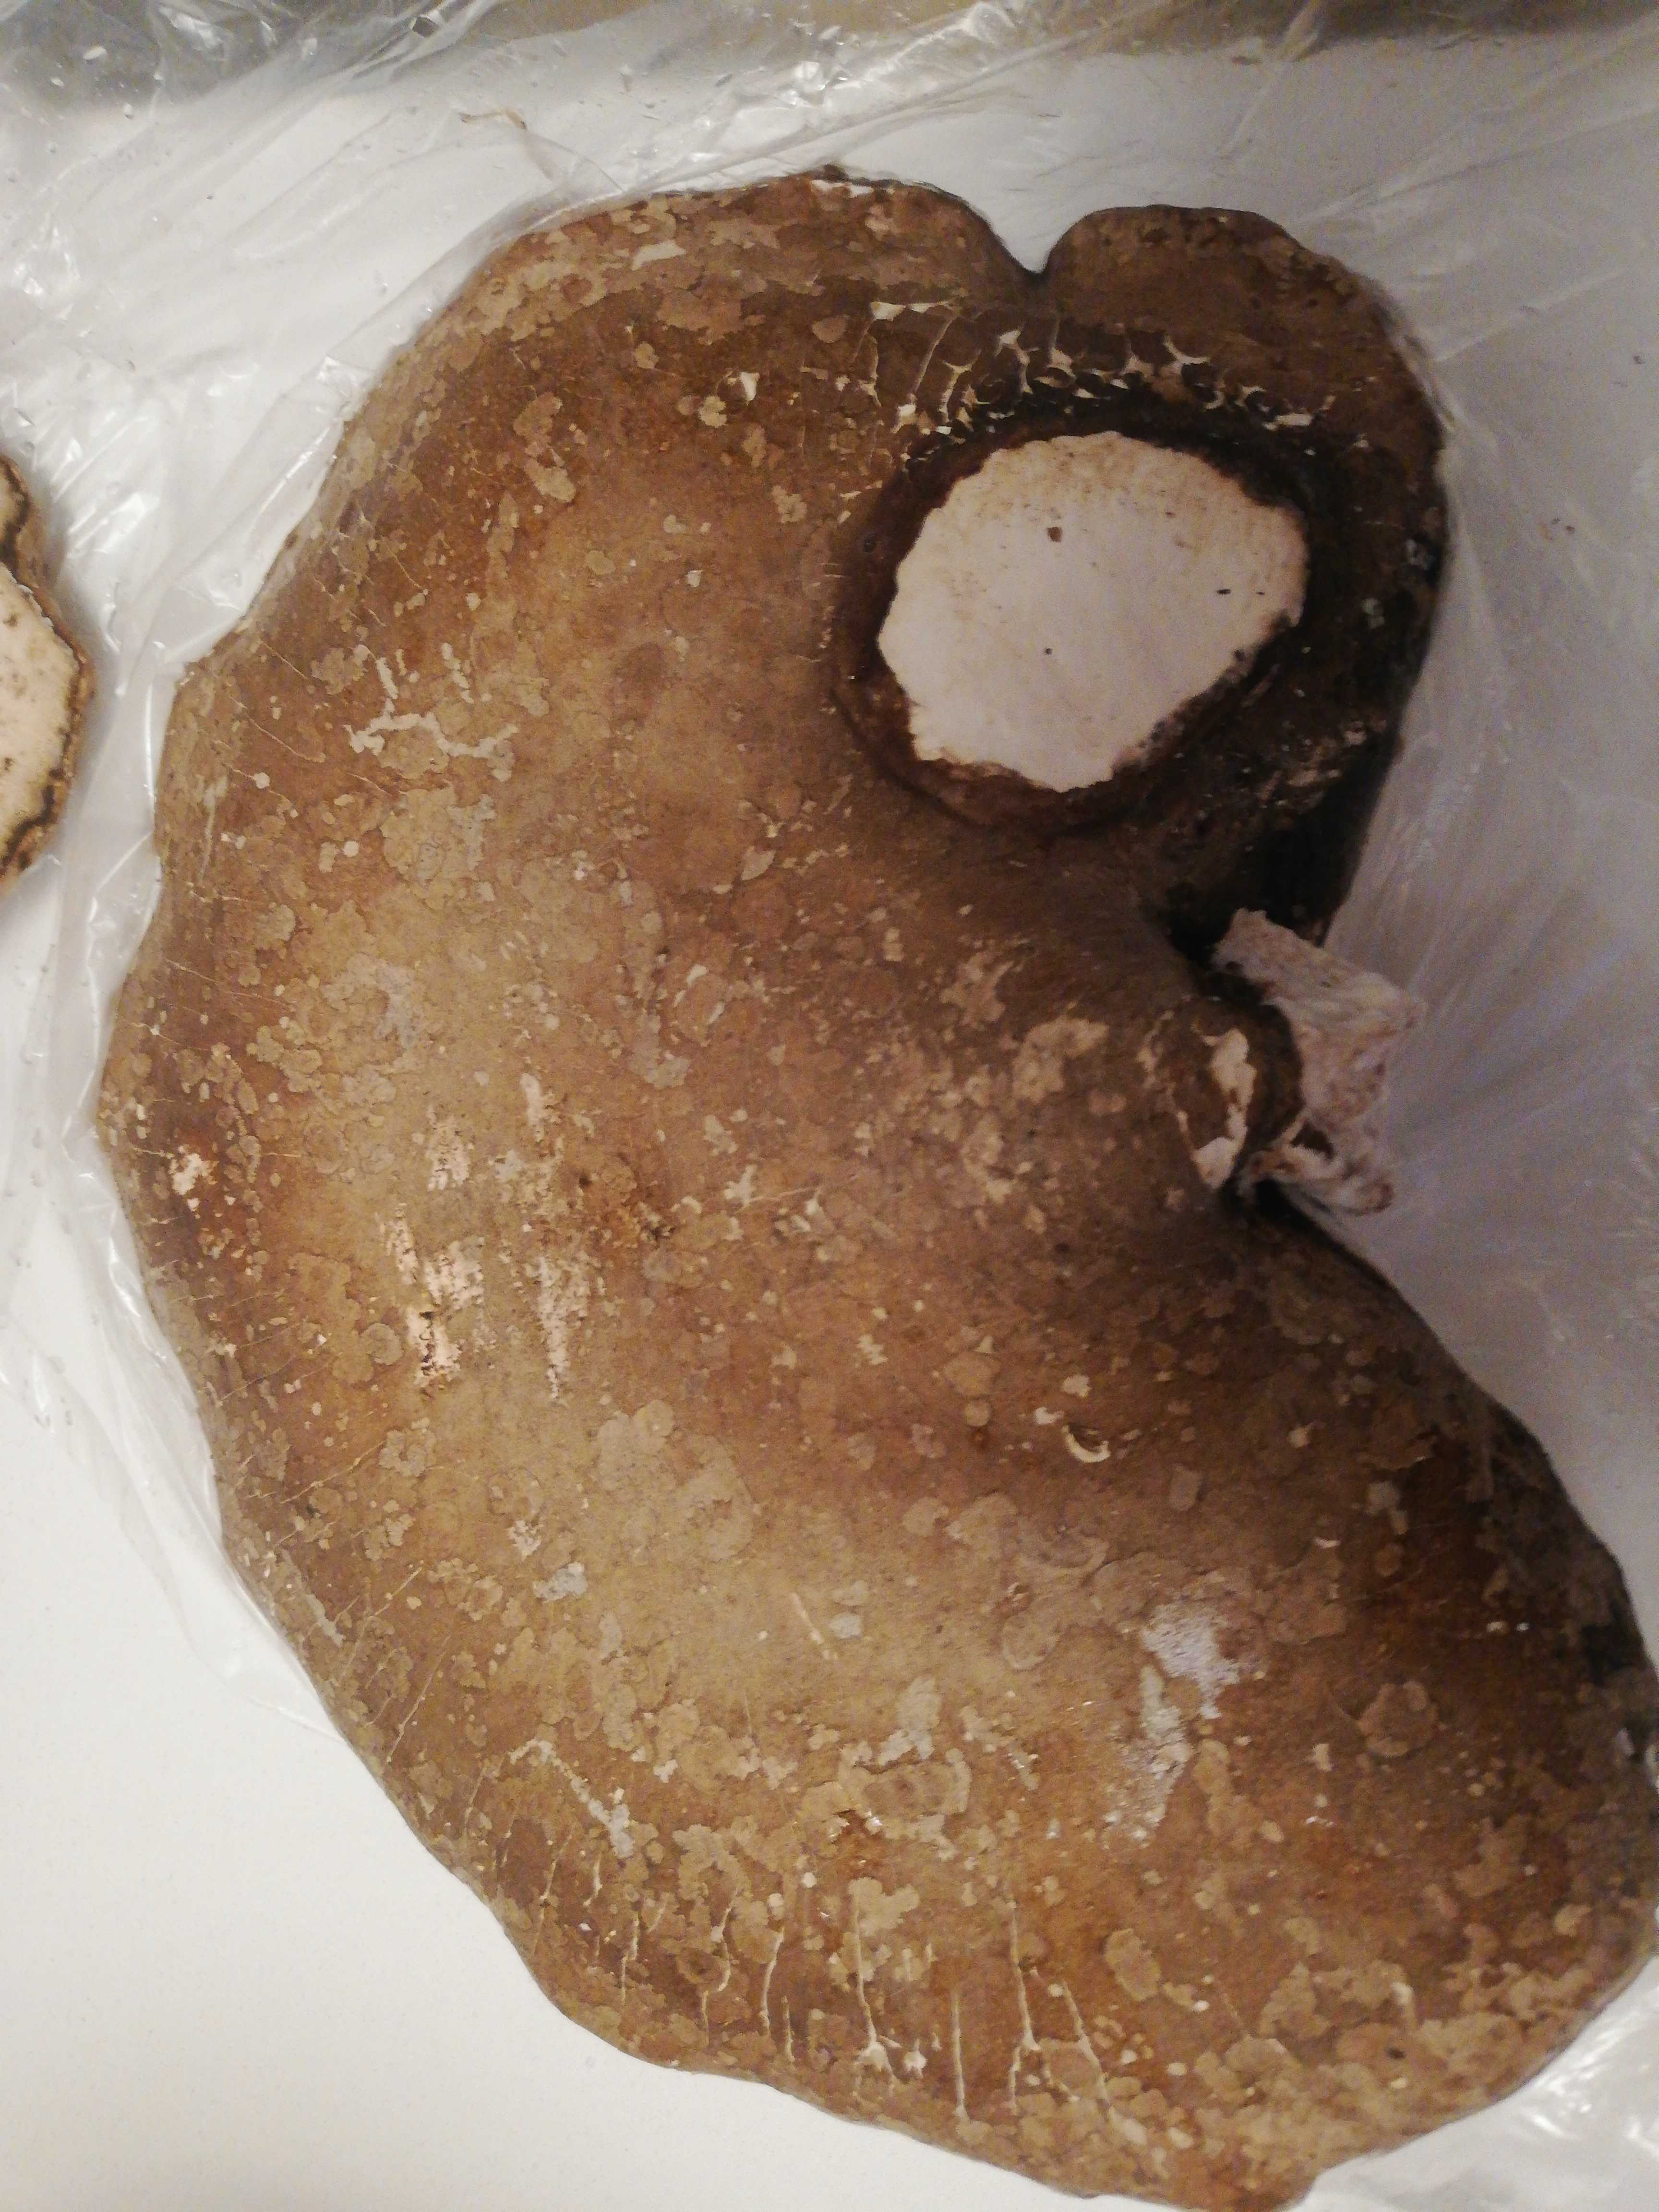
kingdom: Fungi
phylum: Basidiomycota
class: Agaricomycetes
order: Polyporales
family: Fomitopsidaceae
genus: Fomitopsis
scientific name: Fomitopsis betulina
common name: birkeporesvamp
